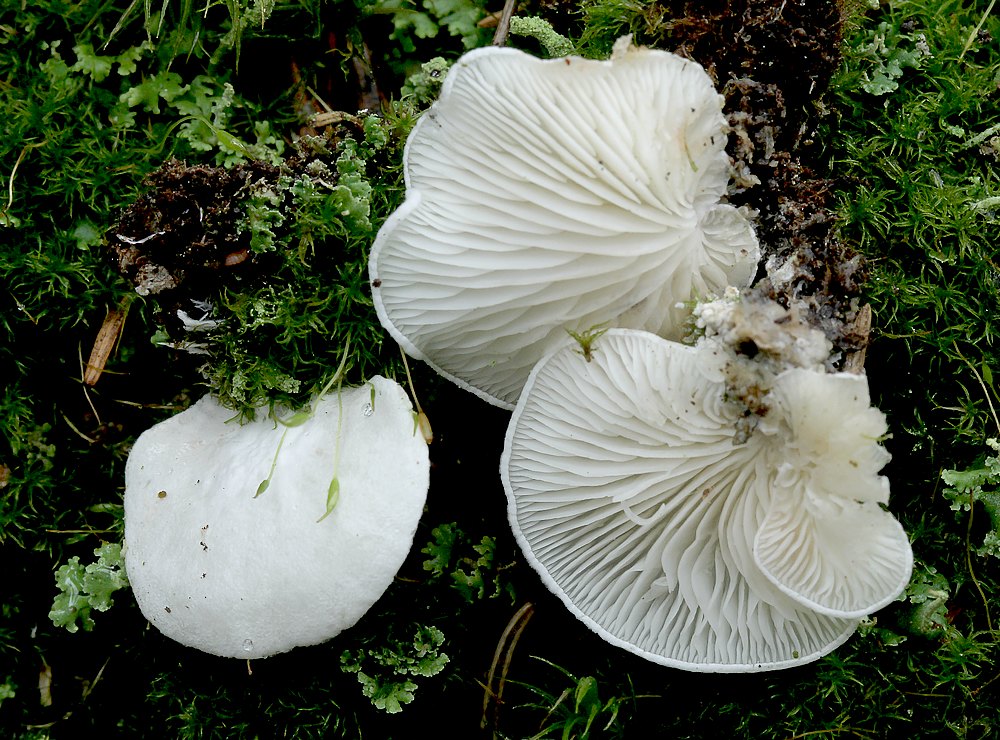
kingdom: Fungi
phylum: Basidiomycota
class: Agaricomycetes
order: Agaricales
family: Entolomataceae
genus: Clitopilus
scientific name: Clitopilus hobsonii
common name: Miller's oysterling
